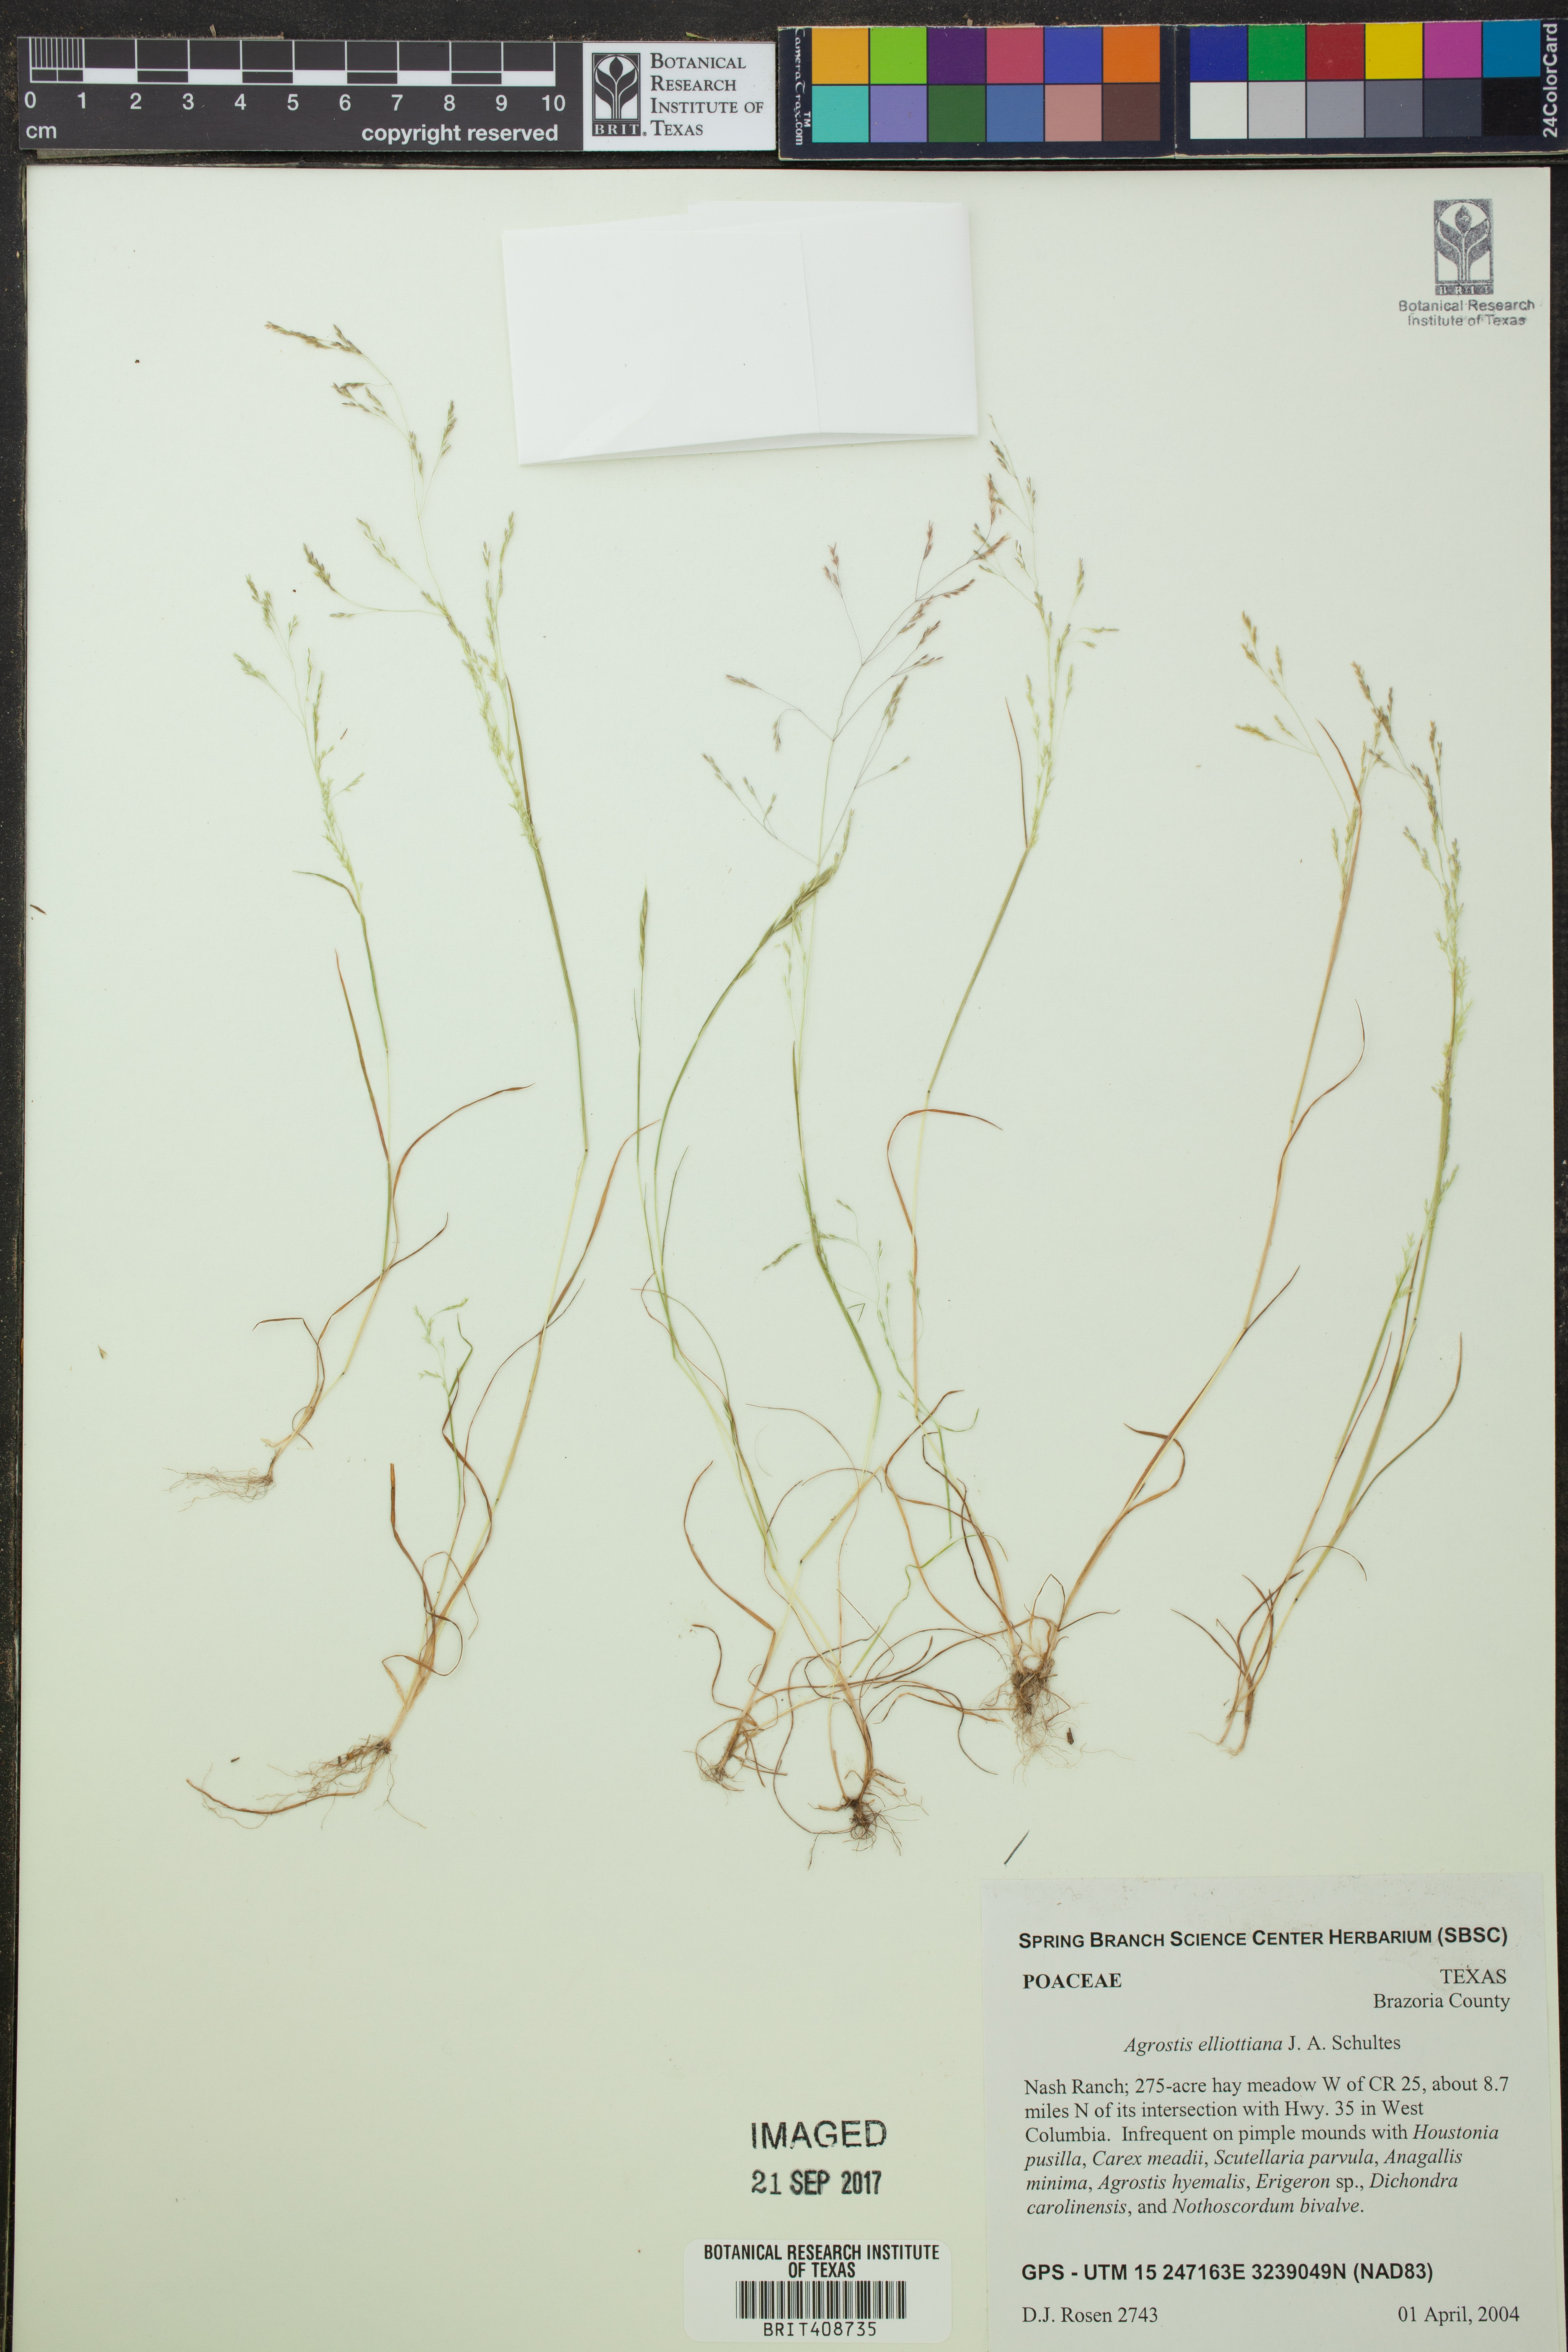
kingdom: Plantae
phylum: Tracheophyta
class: Liliopsida
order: Poales
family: Poaceae
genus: Agrostis
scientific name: Agrostis elliottiana
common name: Elliott's bent
